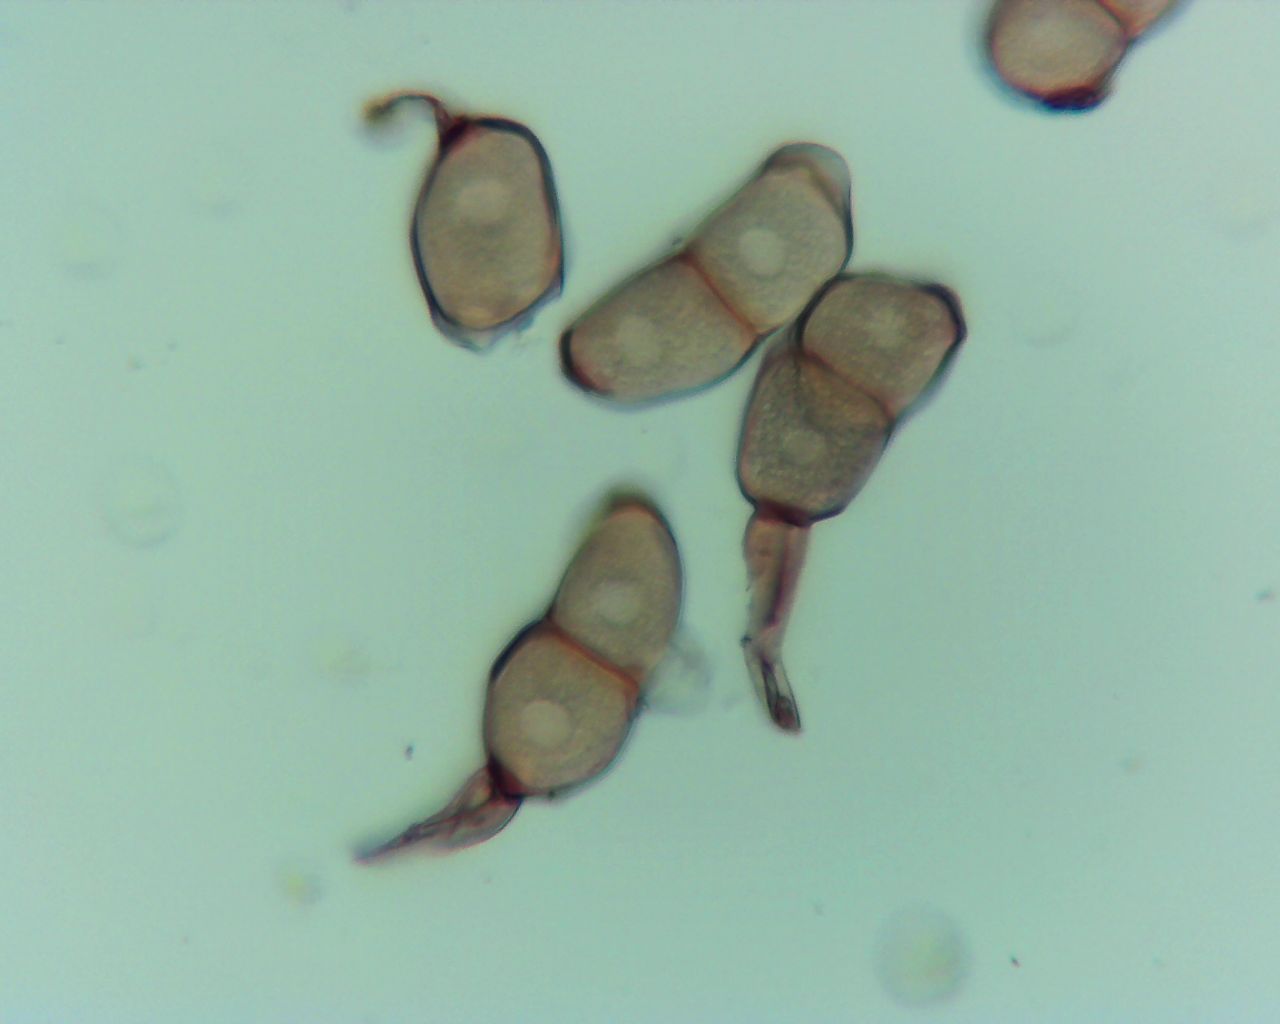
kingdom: Fungi
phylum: Basidiomycota
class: Pucciniomycetes
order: Pucciniales
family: Pucciniaceae
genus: Peristemma
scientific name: Peristemma pseudosphaeria
